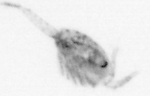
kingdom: Animalia
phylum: Arthropoda
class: Copepoda
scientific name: Copepoda
